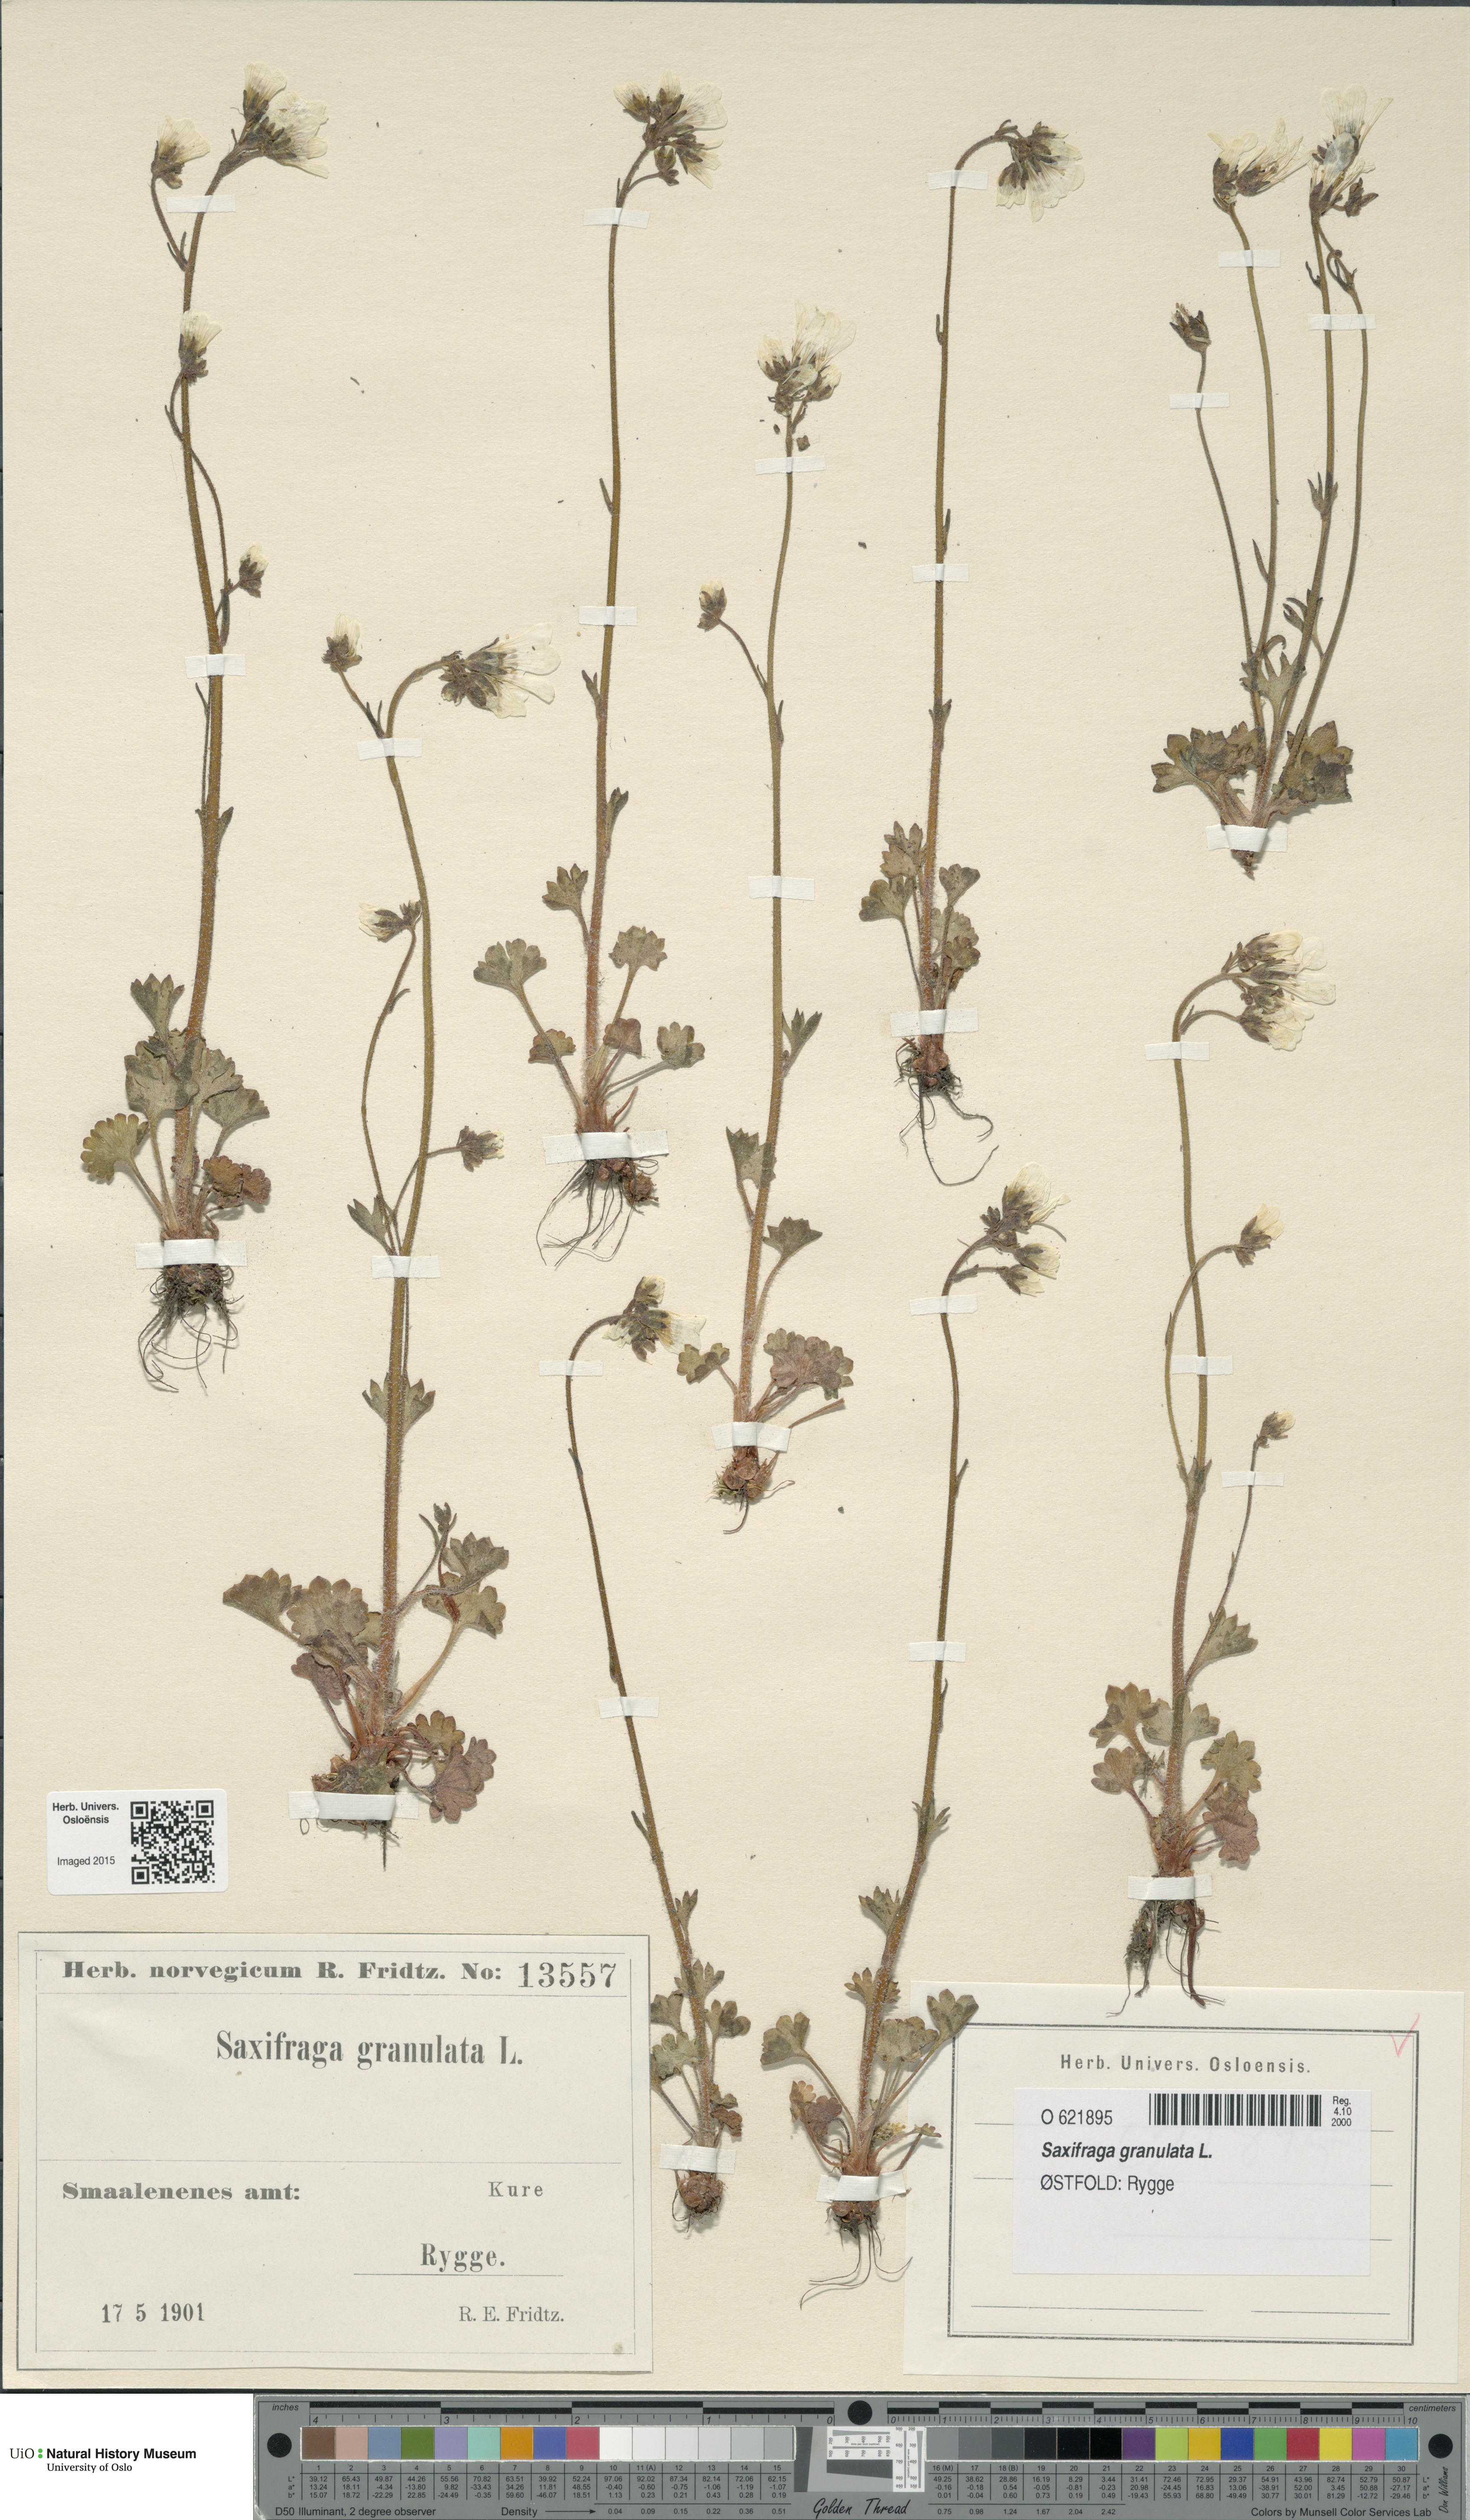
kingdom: Plantae
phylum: Tracheophyta
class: Magnoliopsida
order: Saxifragales
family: Saxifragaceae
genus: Saxifraga
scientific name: Saxifraga granulata
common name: Meadow saxifrage
